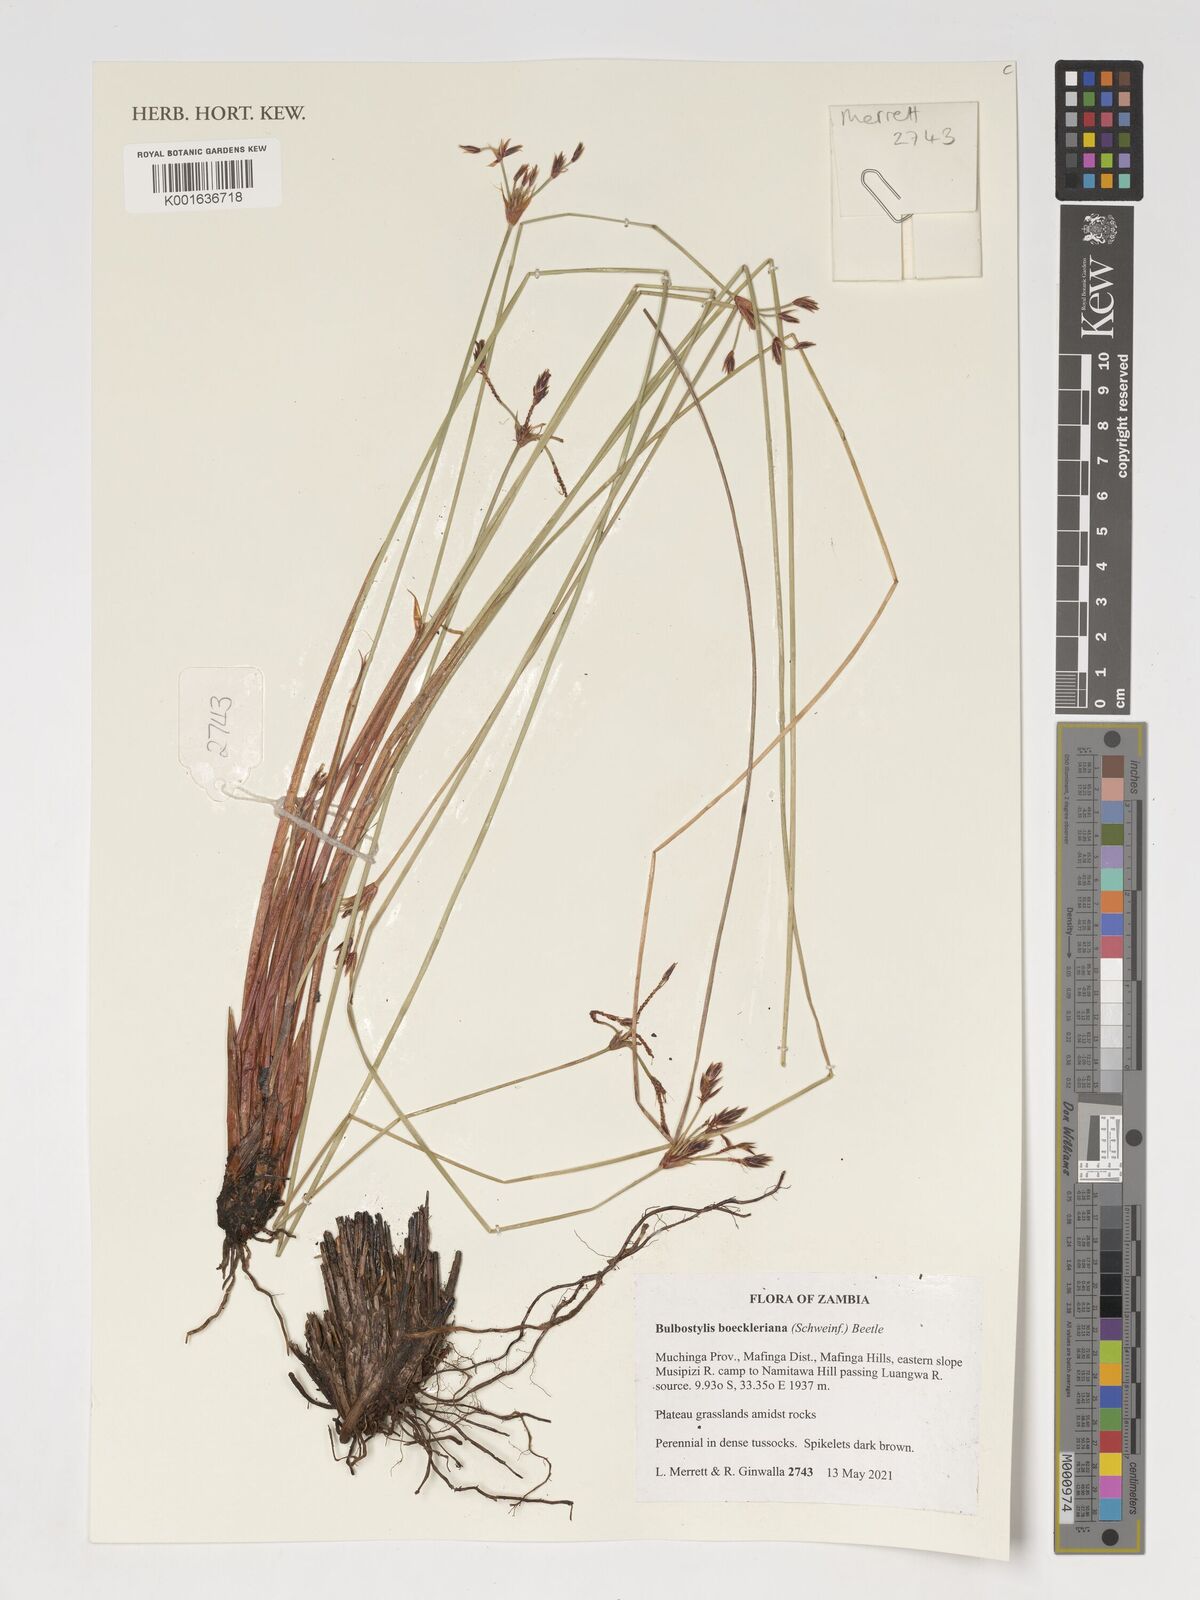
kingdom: Plantae
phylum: Tracheophyta
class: Liliopsida
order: Poales
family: Cyperaceae
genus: Bulbostylis
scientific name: Bulbostylis boeckeleriana
